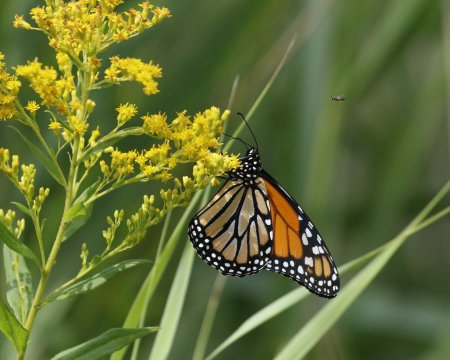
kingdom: Animalia
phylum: Arthropoda
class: Insecta
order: Lepidoptera
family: Nymphalidae
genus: Danaus
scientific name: Danaus plexippus
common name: Monarch
